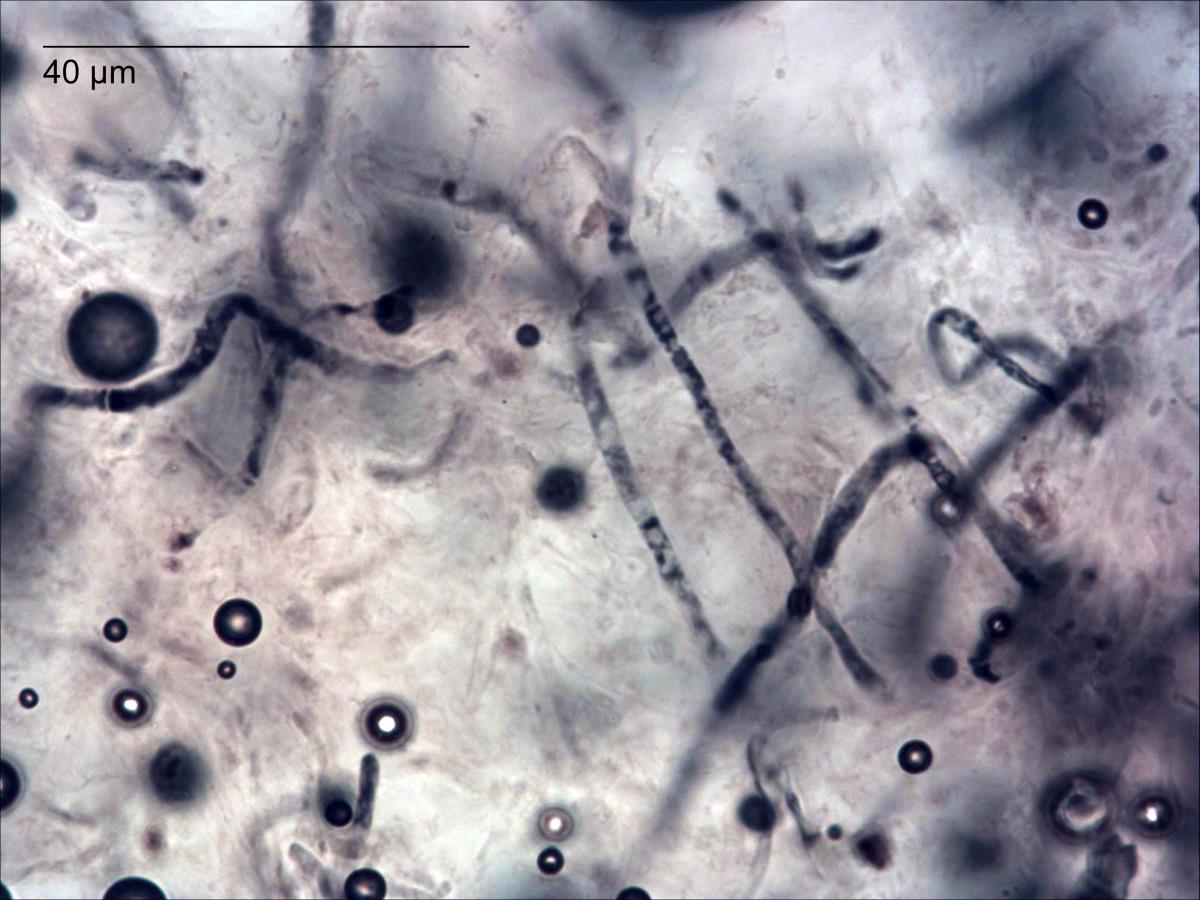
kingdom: Fungi
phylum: Basidiomycota
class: Agaricomycetes
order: Russulales
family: Russulaceae
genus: Russula
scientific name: Russula papakaiensis
